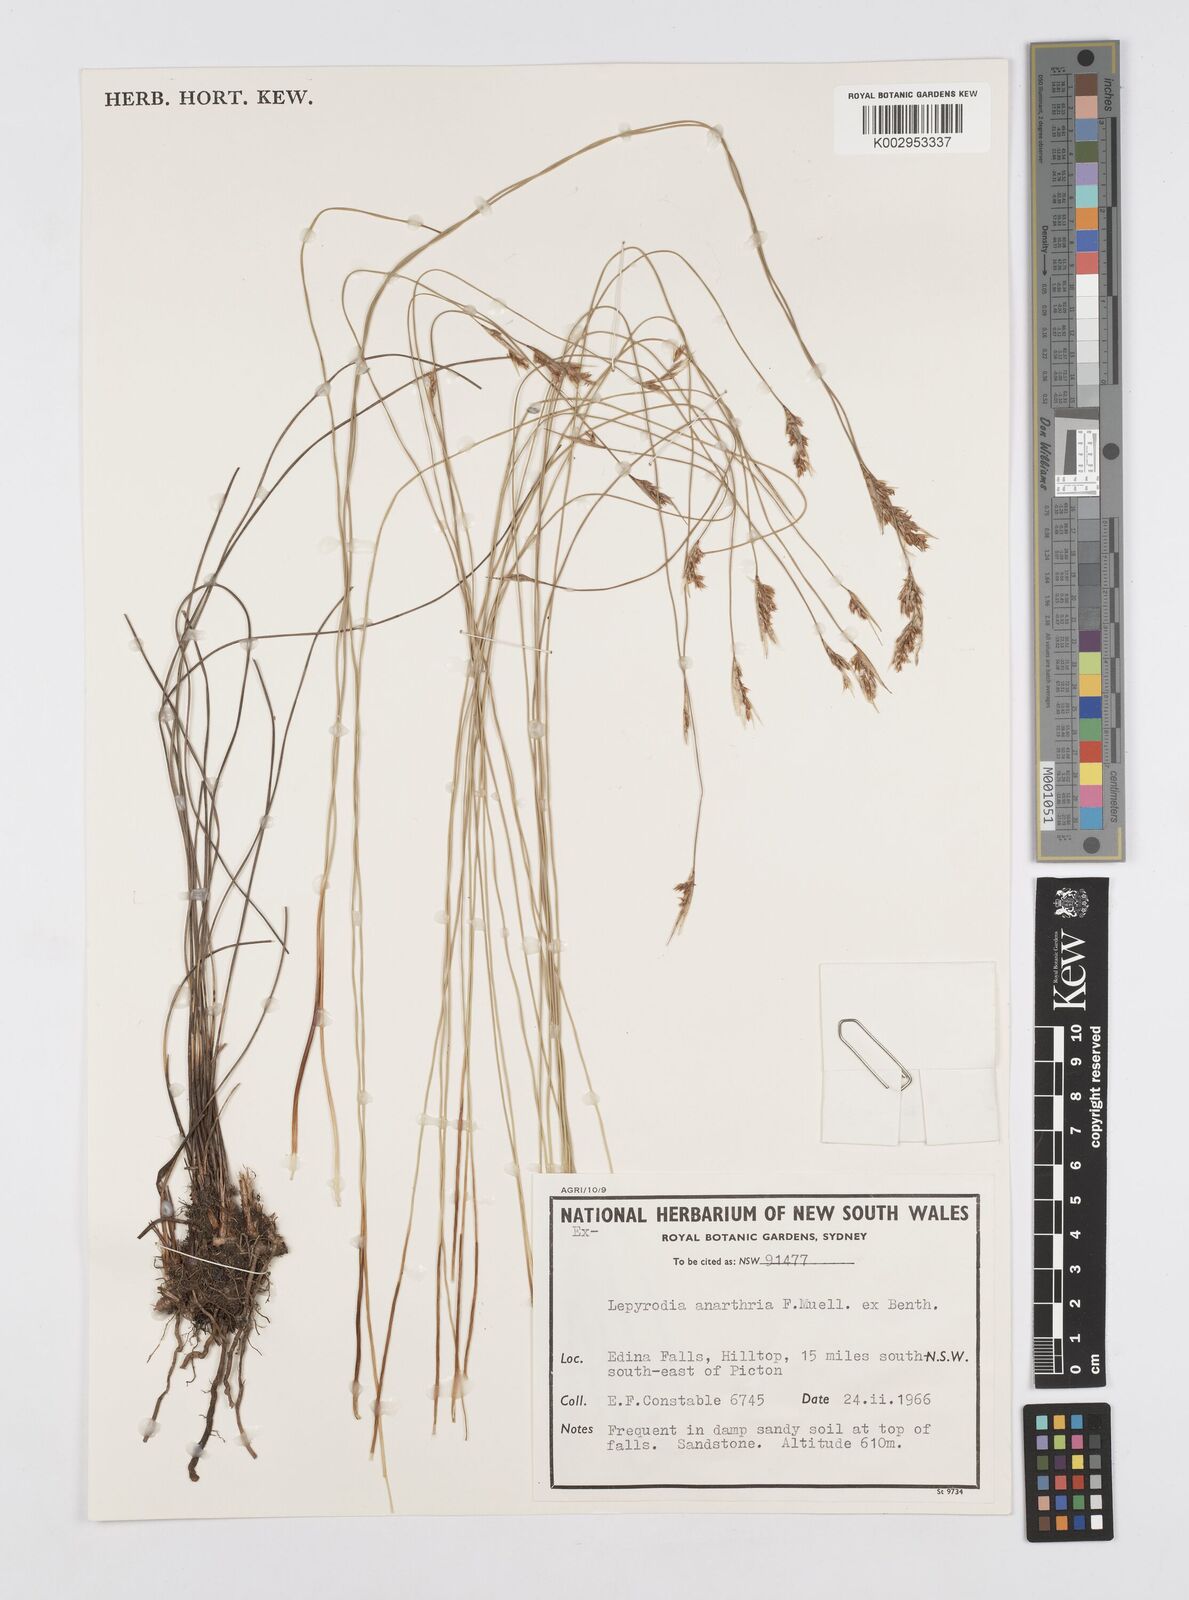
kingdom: Plantae
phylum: Tracheophyta
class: Liliopsida
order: Poales
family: Restionaceae
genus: Lepyrodia
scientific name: Lepyrodia anarthria
